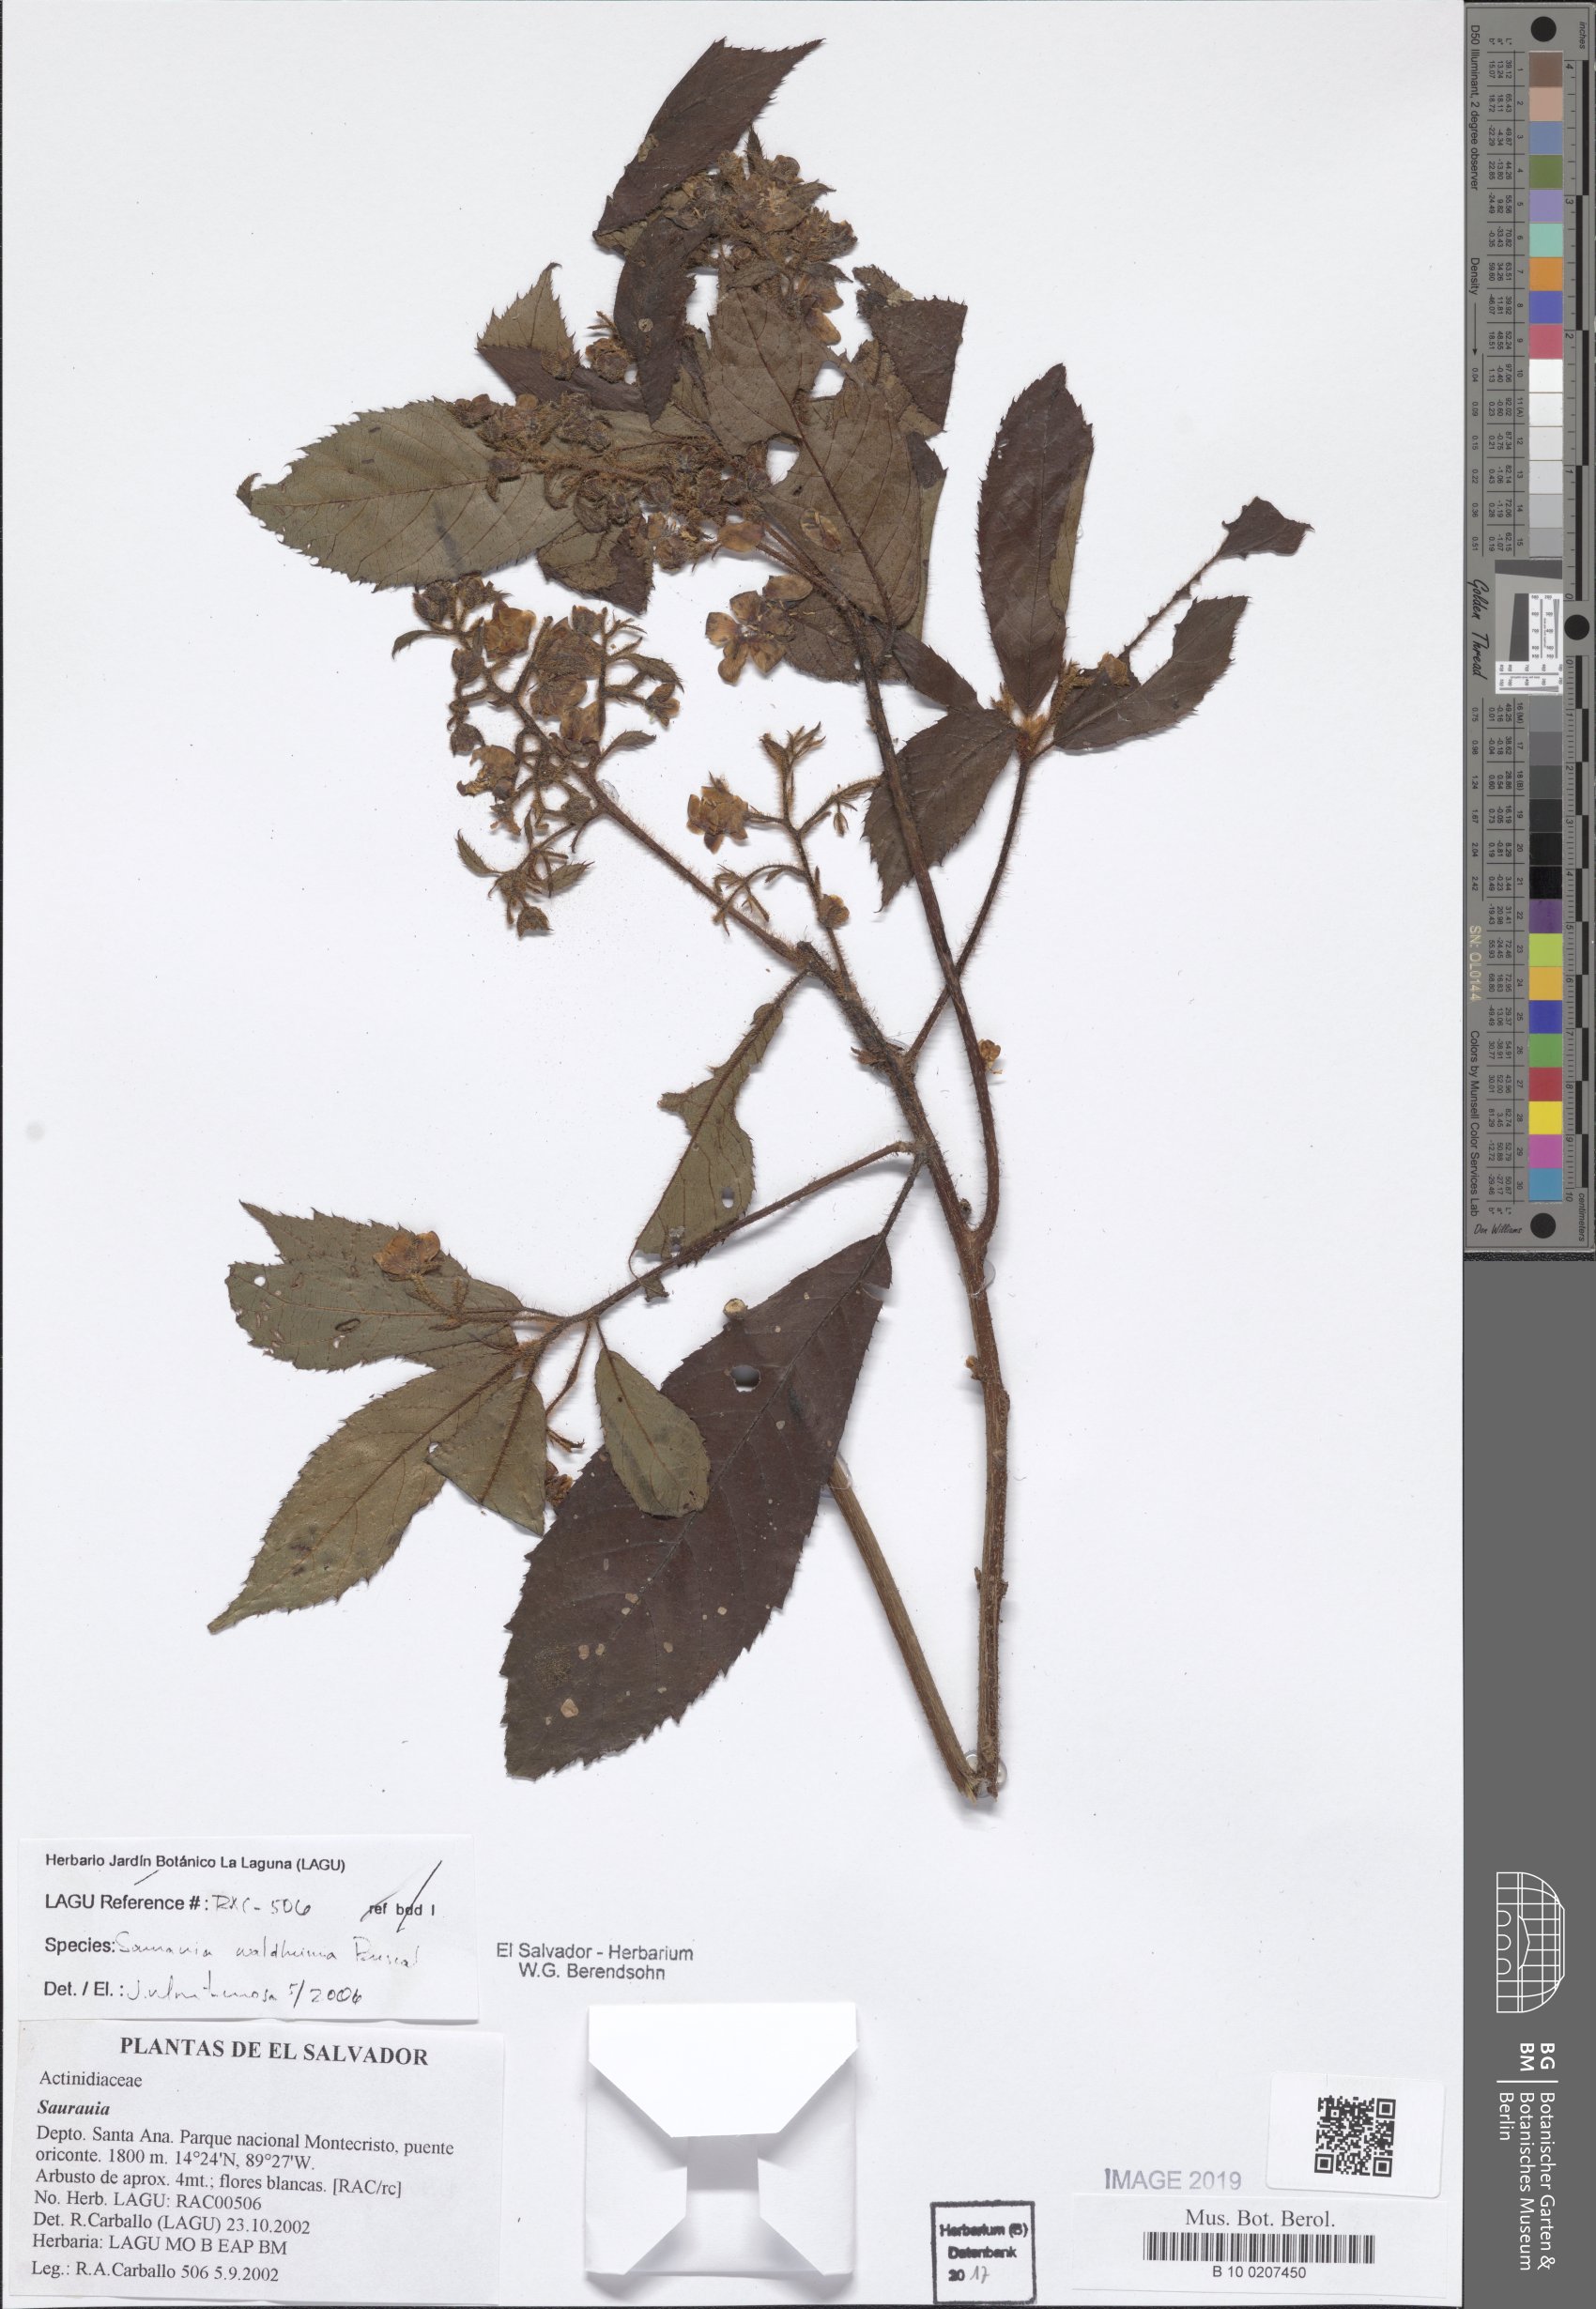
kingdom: Plantae
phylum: Tracheophyta
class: Magnoliopsida
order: Ericales
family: Actinidiaceae
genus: Saurauia
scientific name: Saurauia waldheimii
